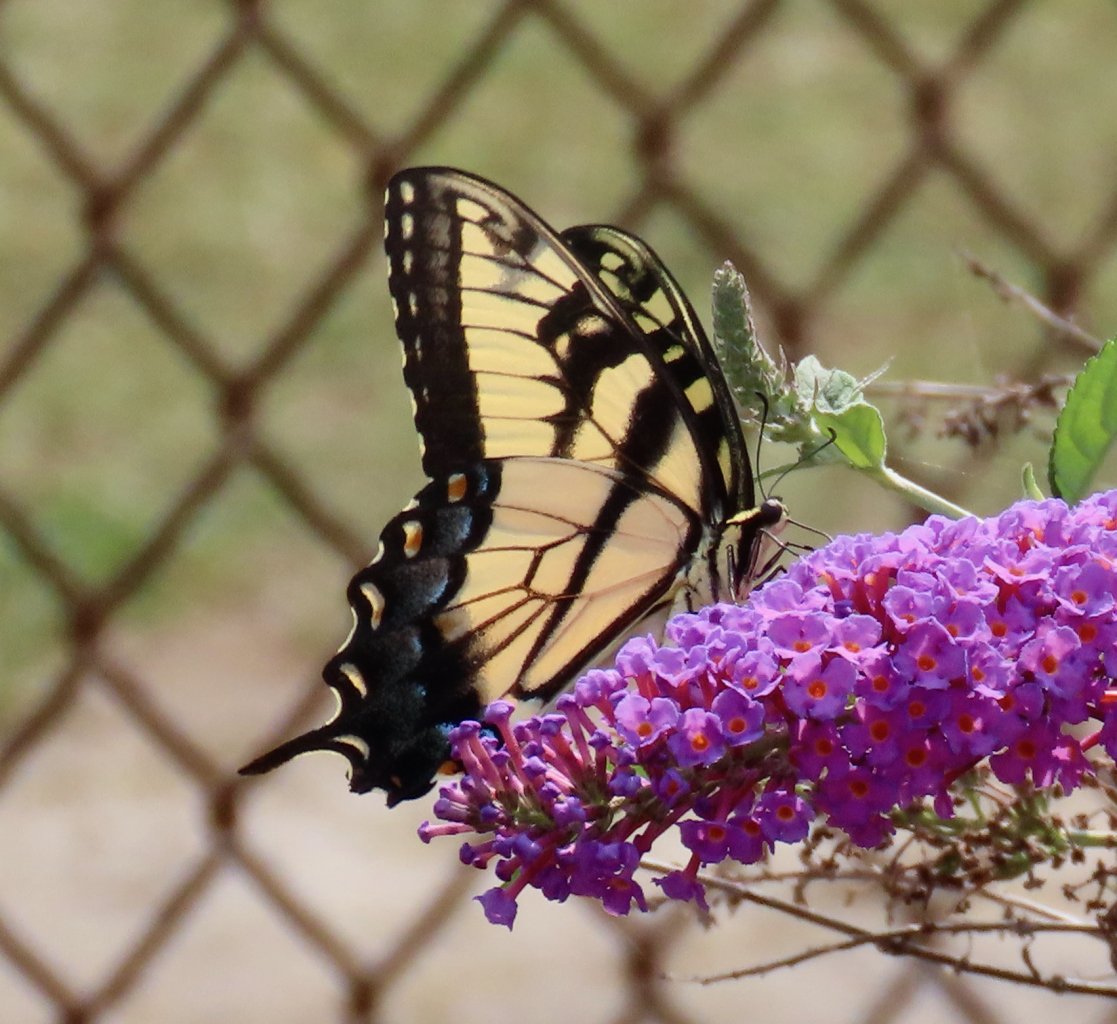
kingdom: Animalia
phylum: Arthropoda
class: Insecta
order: Lepidoptera
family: Papilionidae
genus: Pterourus
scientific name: Pterourus glaucus
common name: Eastern Tiger Swallowtail
